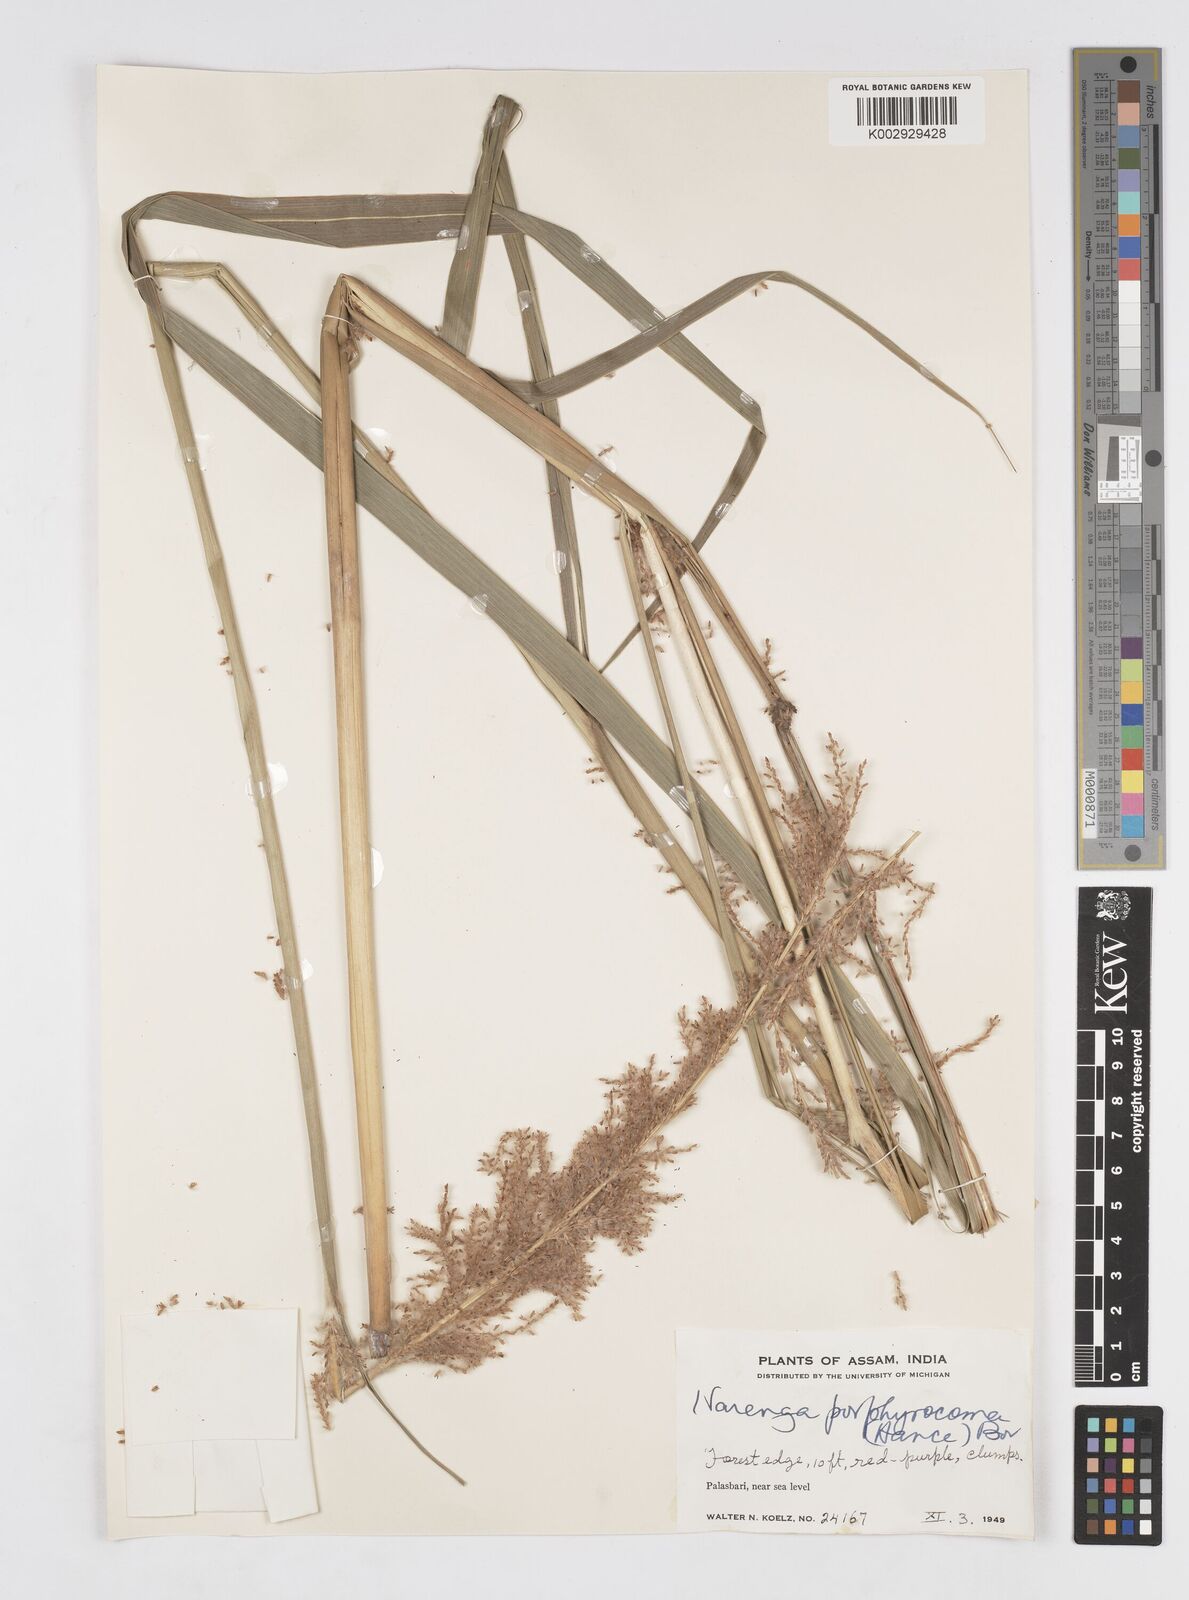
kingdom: Plantae
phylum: Tracheophyta
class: Liliopsida
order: Poales
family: Poaceae
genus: Narenga
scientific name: Narenga porphyrocoma
